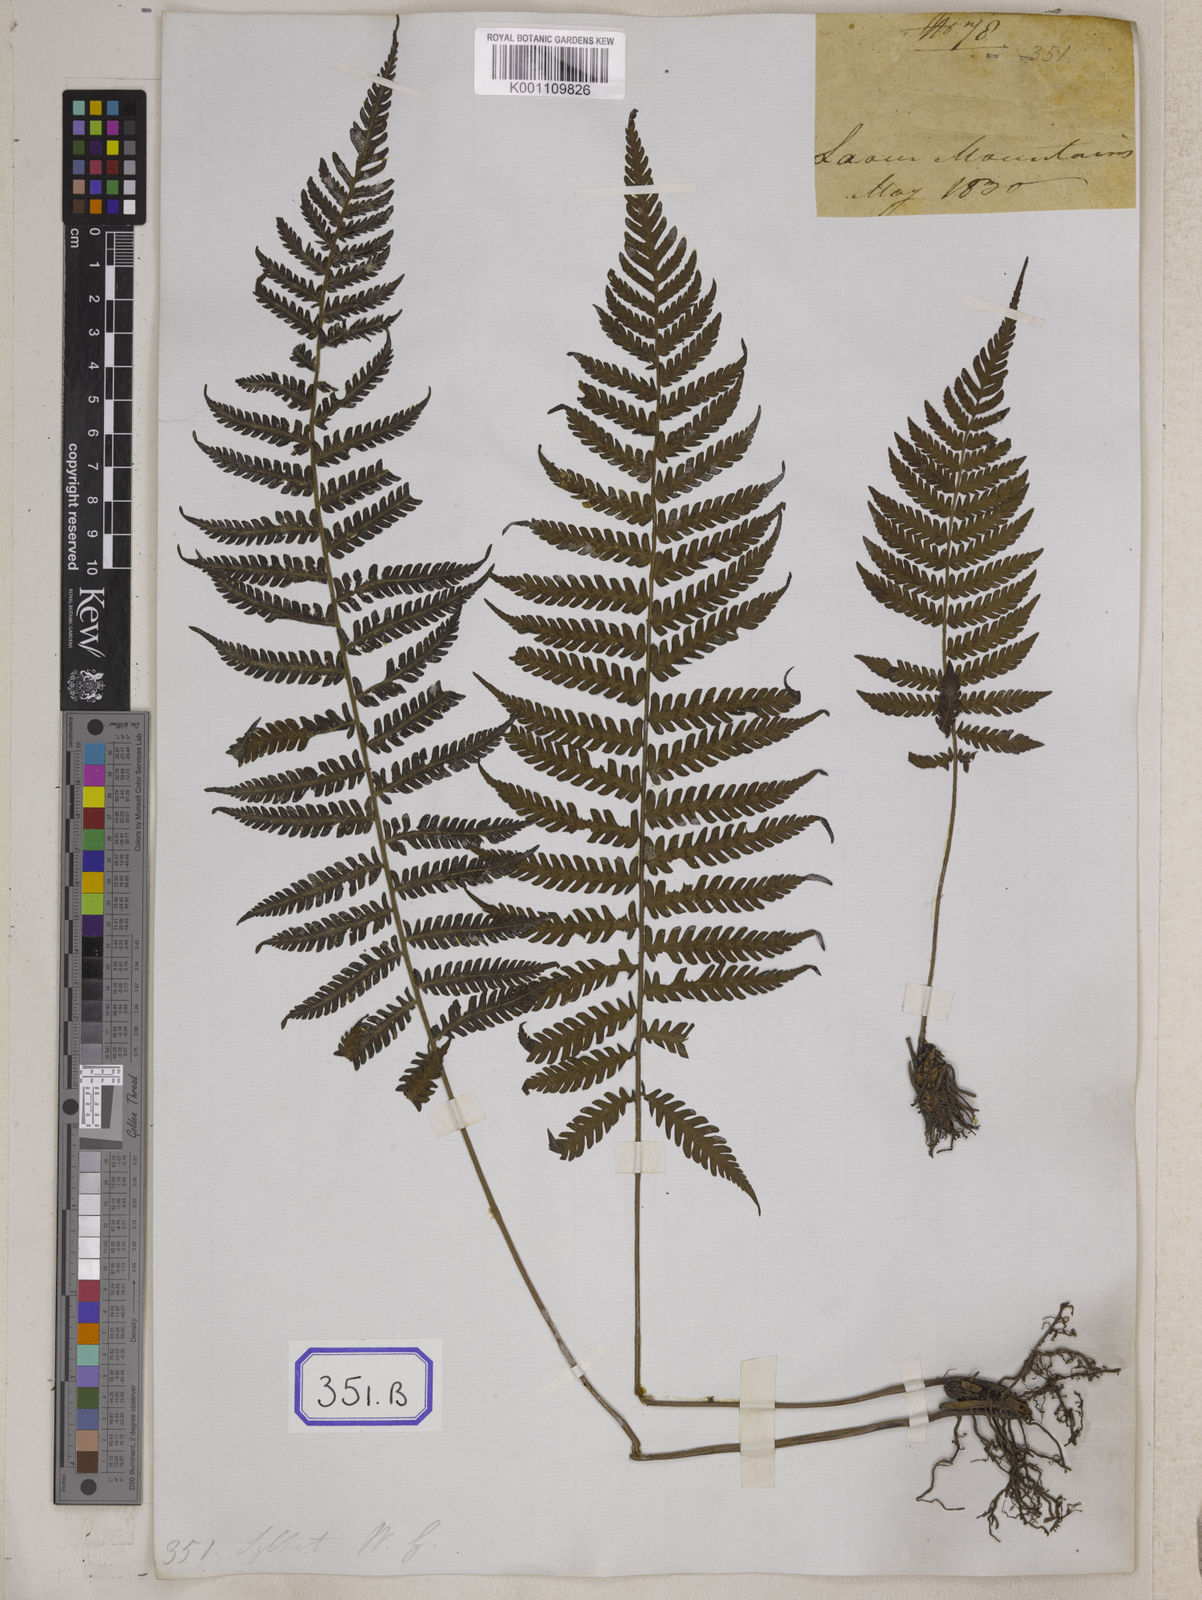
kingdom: Plantae
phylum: Tracheophyta
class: Polypodiopsida
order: Polypodiales
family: Thelypteridaceae
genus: Trigonospora
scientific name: Trigonospora tenera
